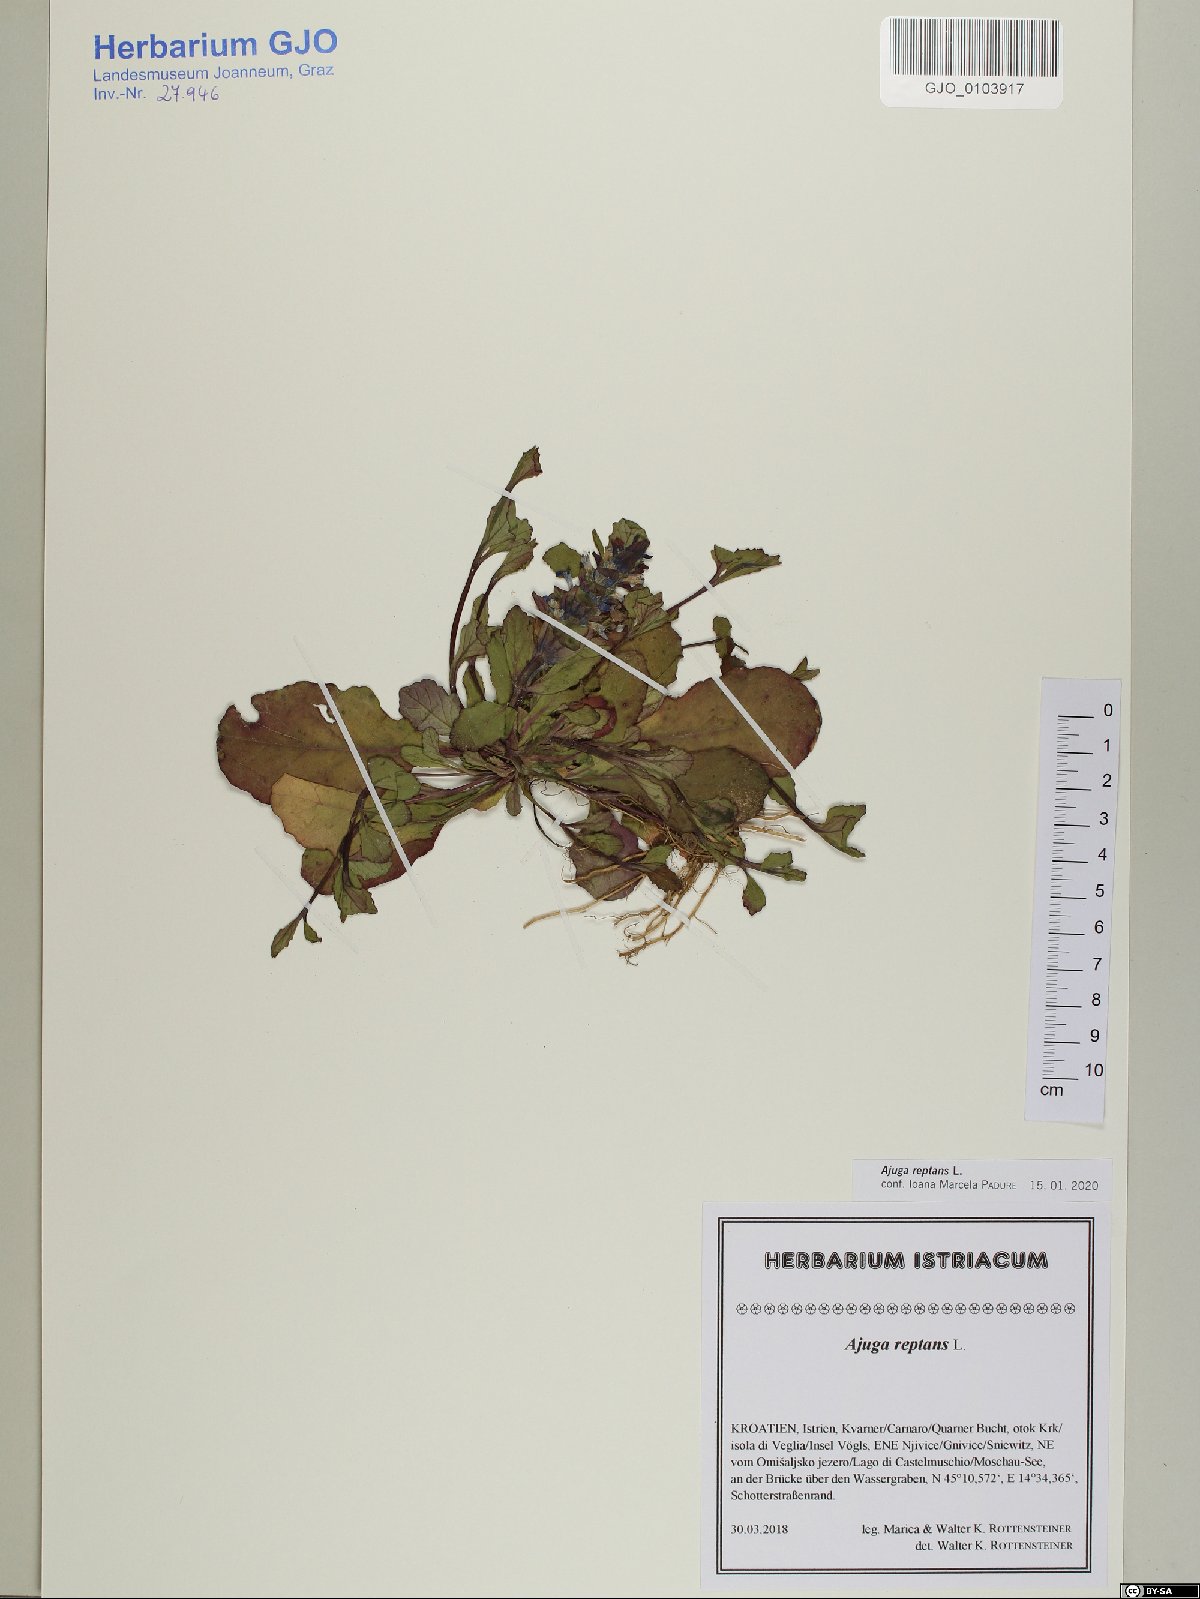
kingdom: Plantae
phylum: Tracheophyta
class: Magnoliopsida
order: Lamiales
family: Lamiaceae
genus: Ajuga
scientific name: Ajuga reptans
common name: Bugle
